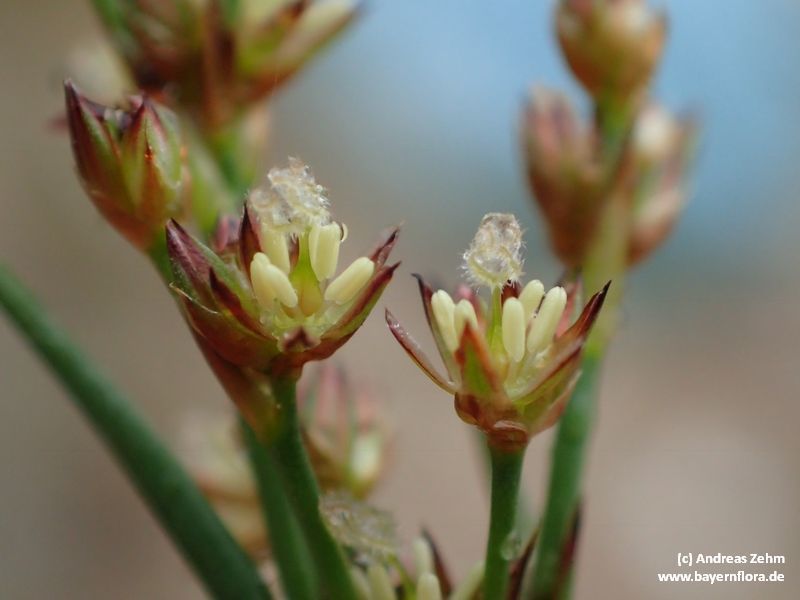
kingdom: Plantae
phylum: Tracheophyta
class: Liliopsida
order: Poales
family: Juncaceae
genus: Juncus
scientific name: Juncus articulatus
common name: Jointed rush
